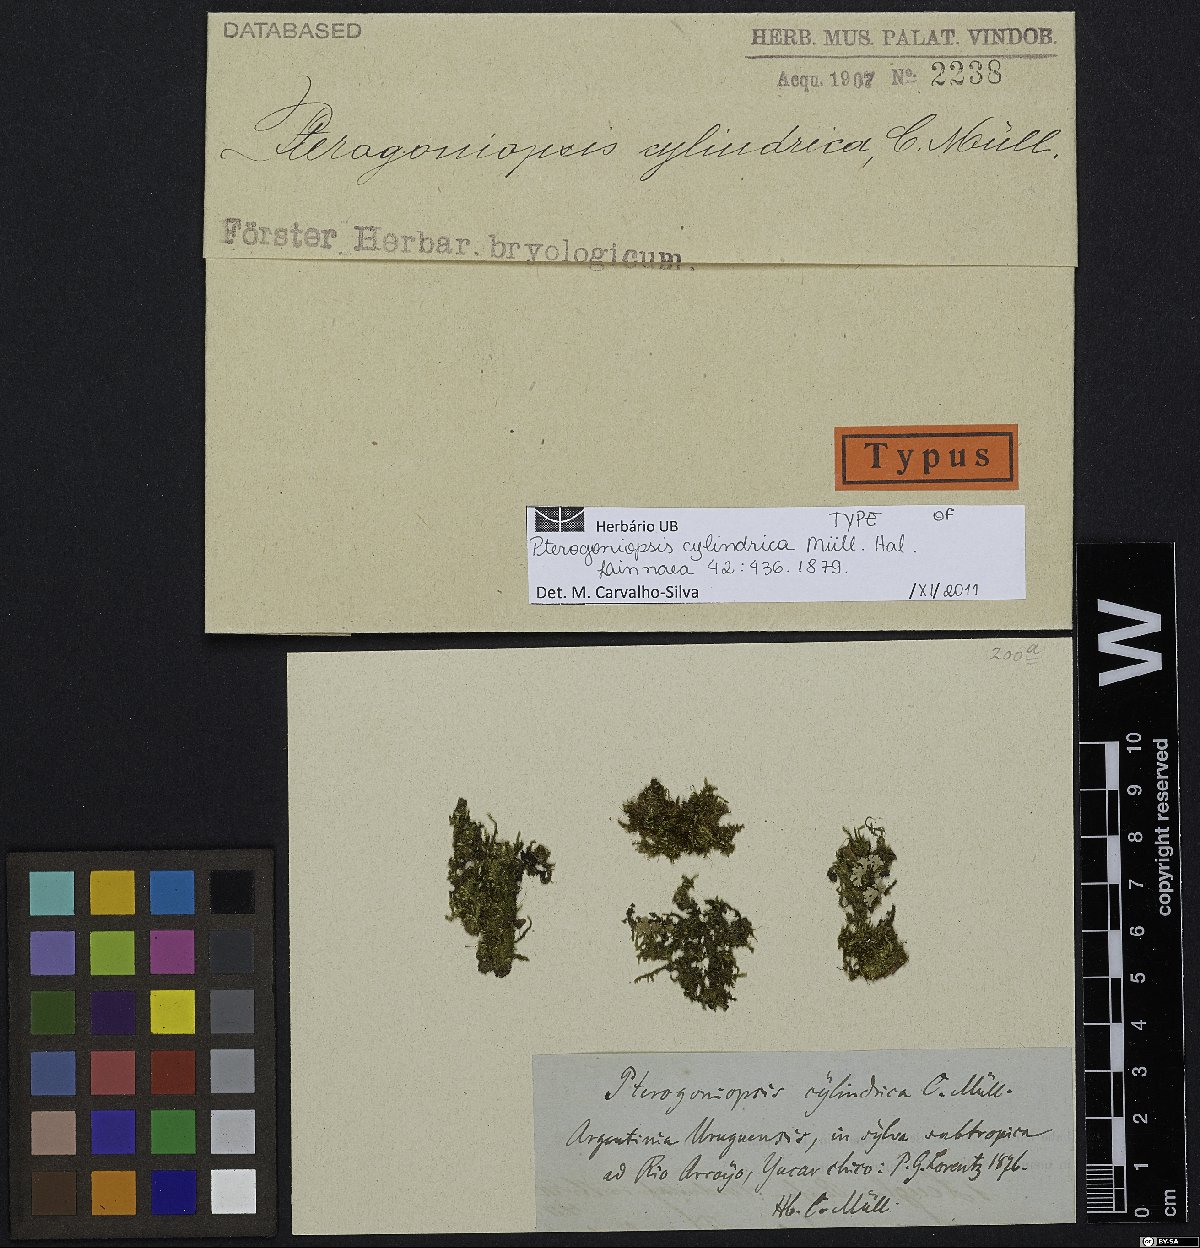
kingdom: Plantae
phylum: Bryophyta
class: Bryopsida
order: Hypnales
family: Sematophyllaceae
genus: Pterogoniopsis
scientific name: Pterogoniopsis cylindrica
